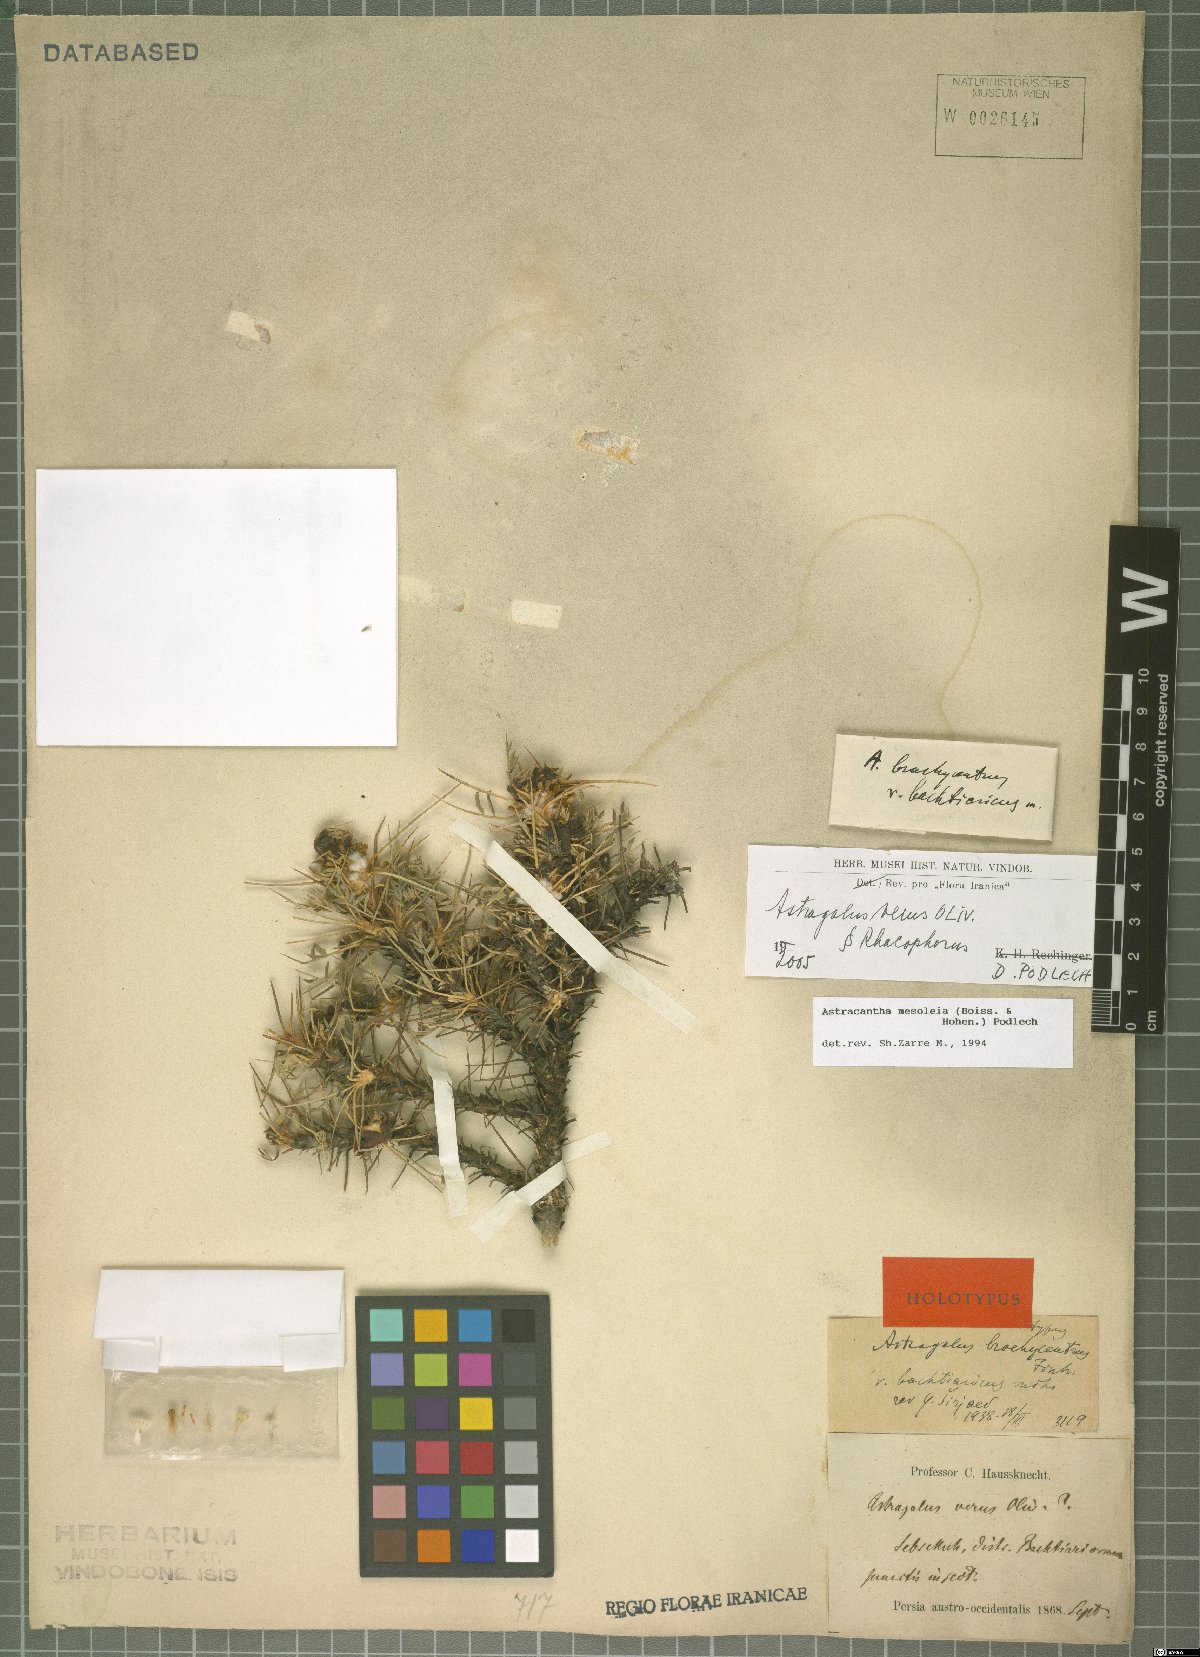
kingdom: Plantae
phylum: Tracheophyta
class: Magnoliopsida
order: Fabales
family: Fabaceae
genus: Astragalus
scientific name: Astragalus verus
